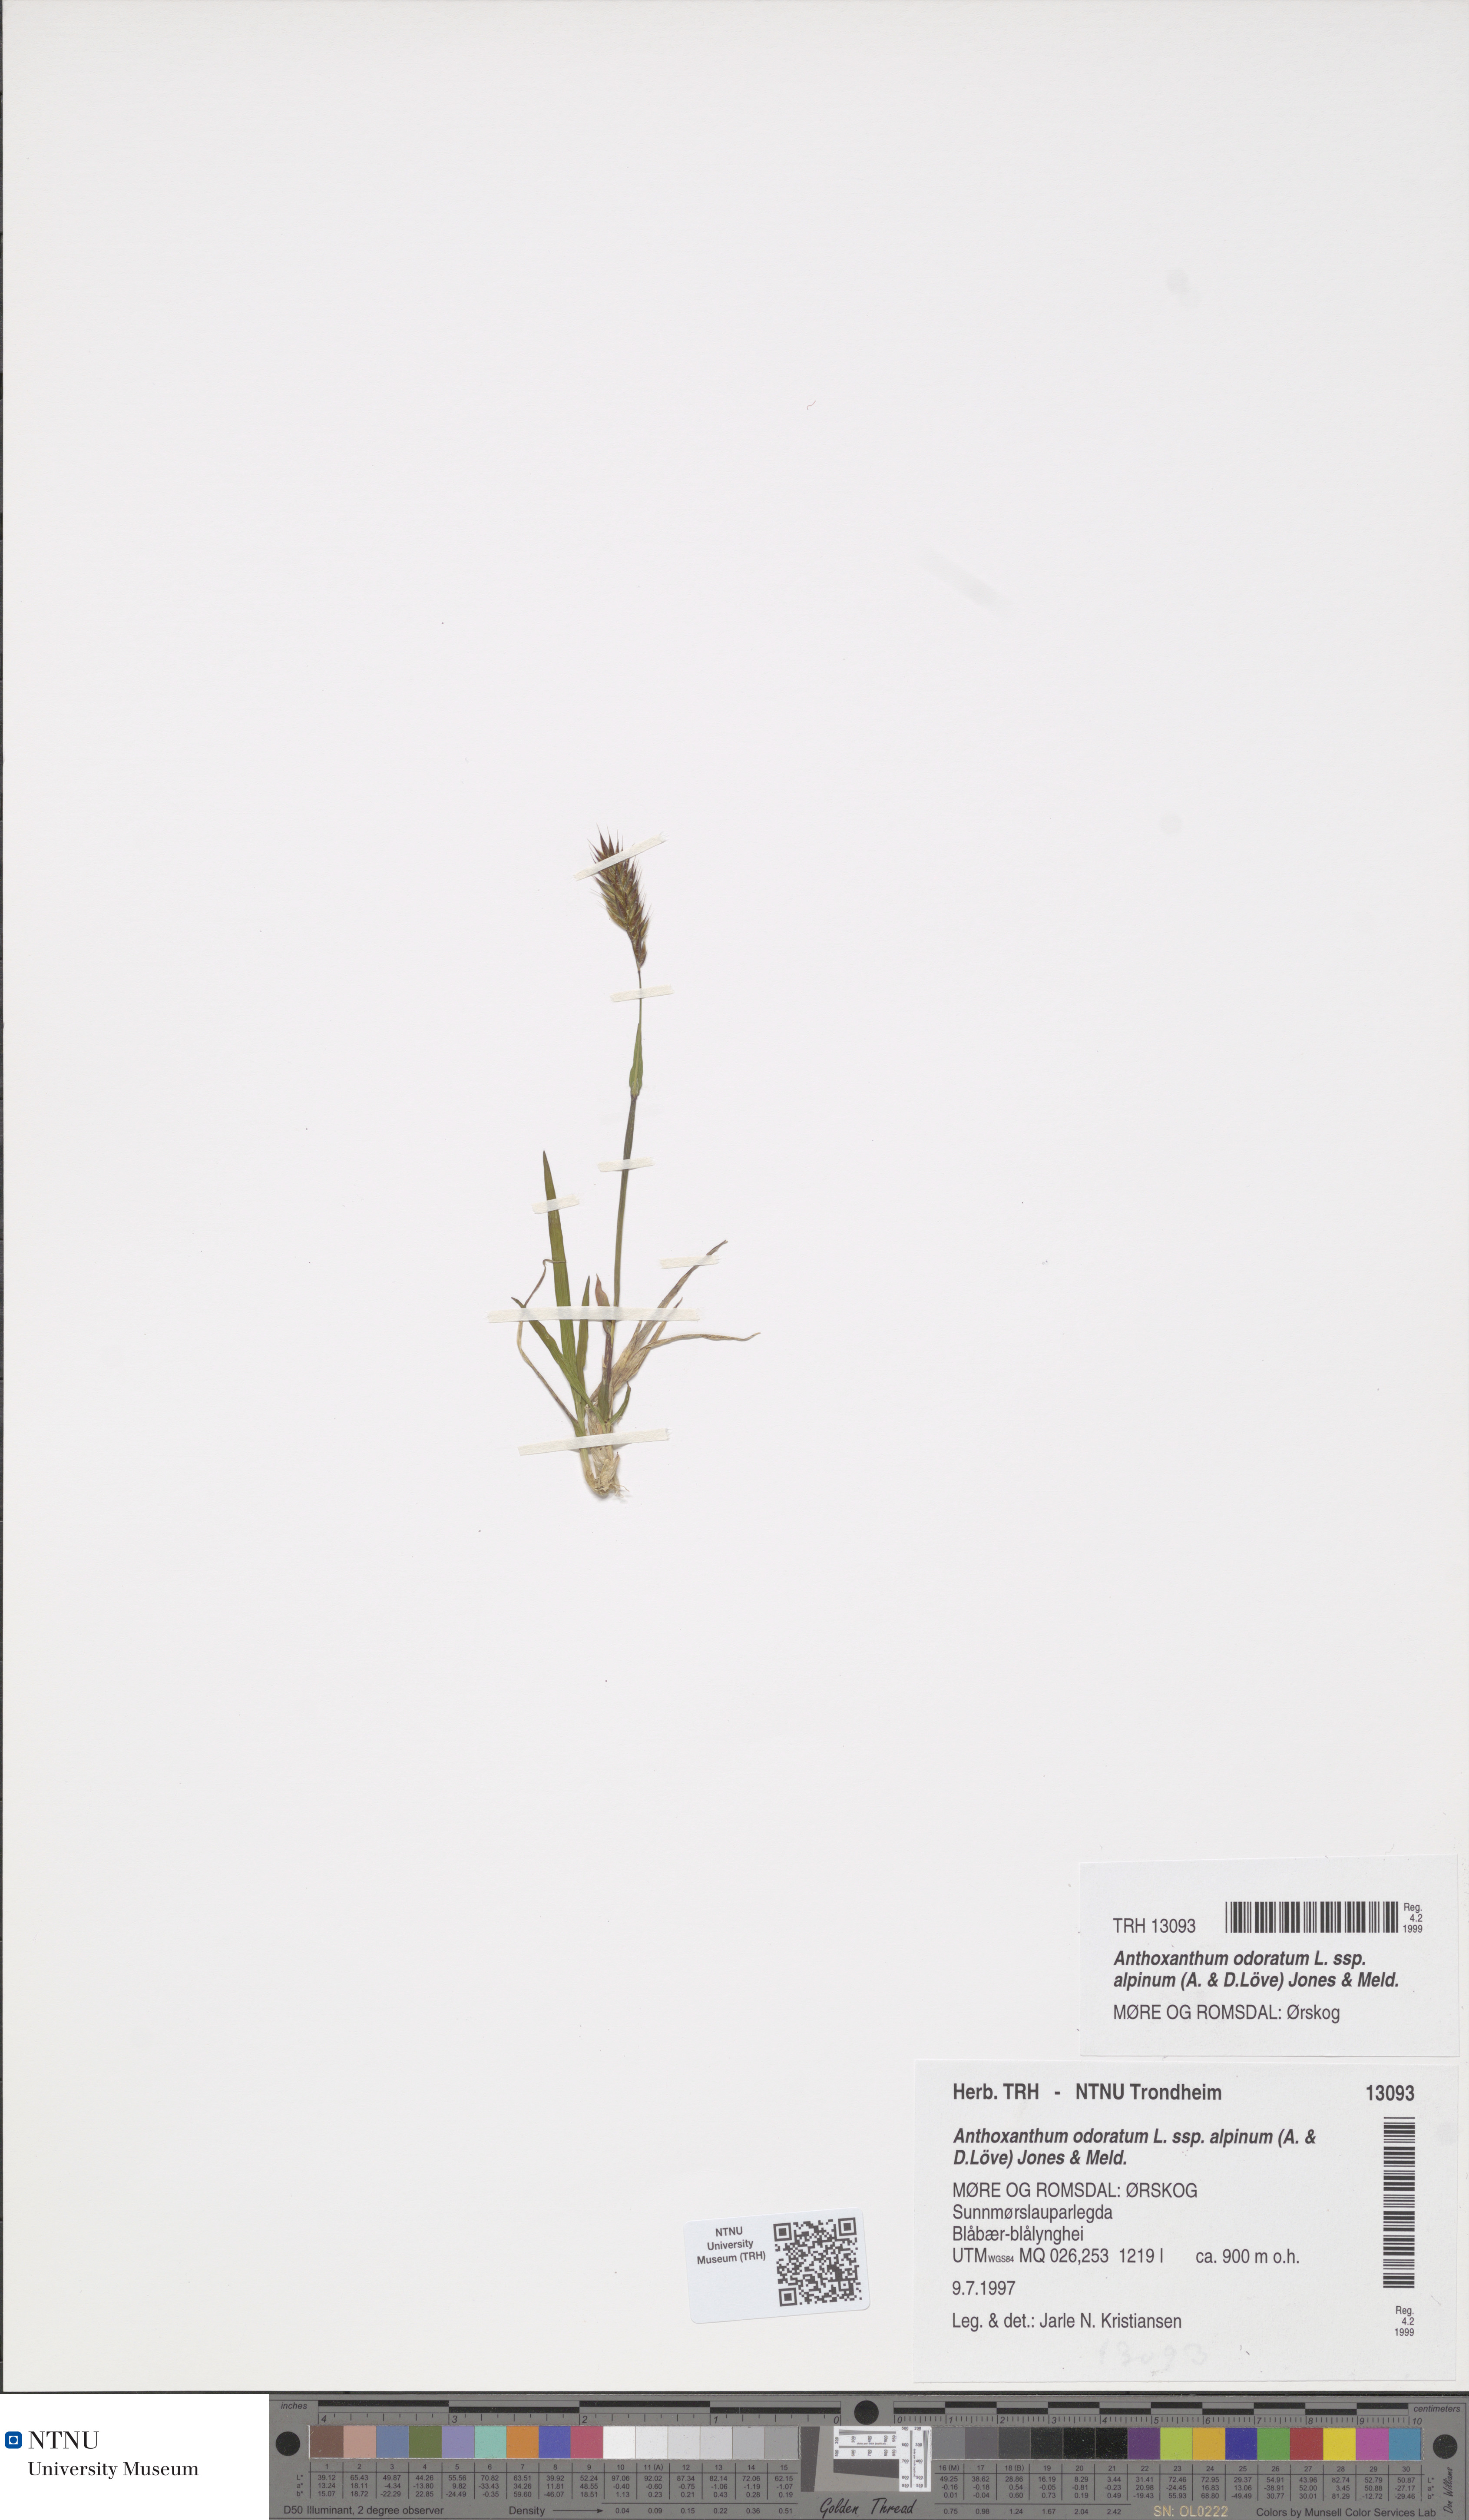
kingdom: Plantae
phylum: Tracheophyta
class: Liliopsida
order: Poales
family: Poaceae
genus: Anthoxanthum
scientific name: Anthoxanthum nipponicum
